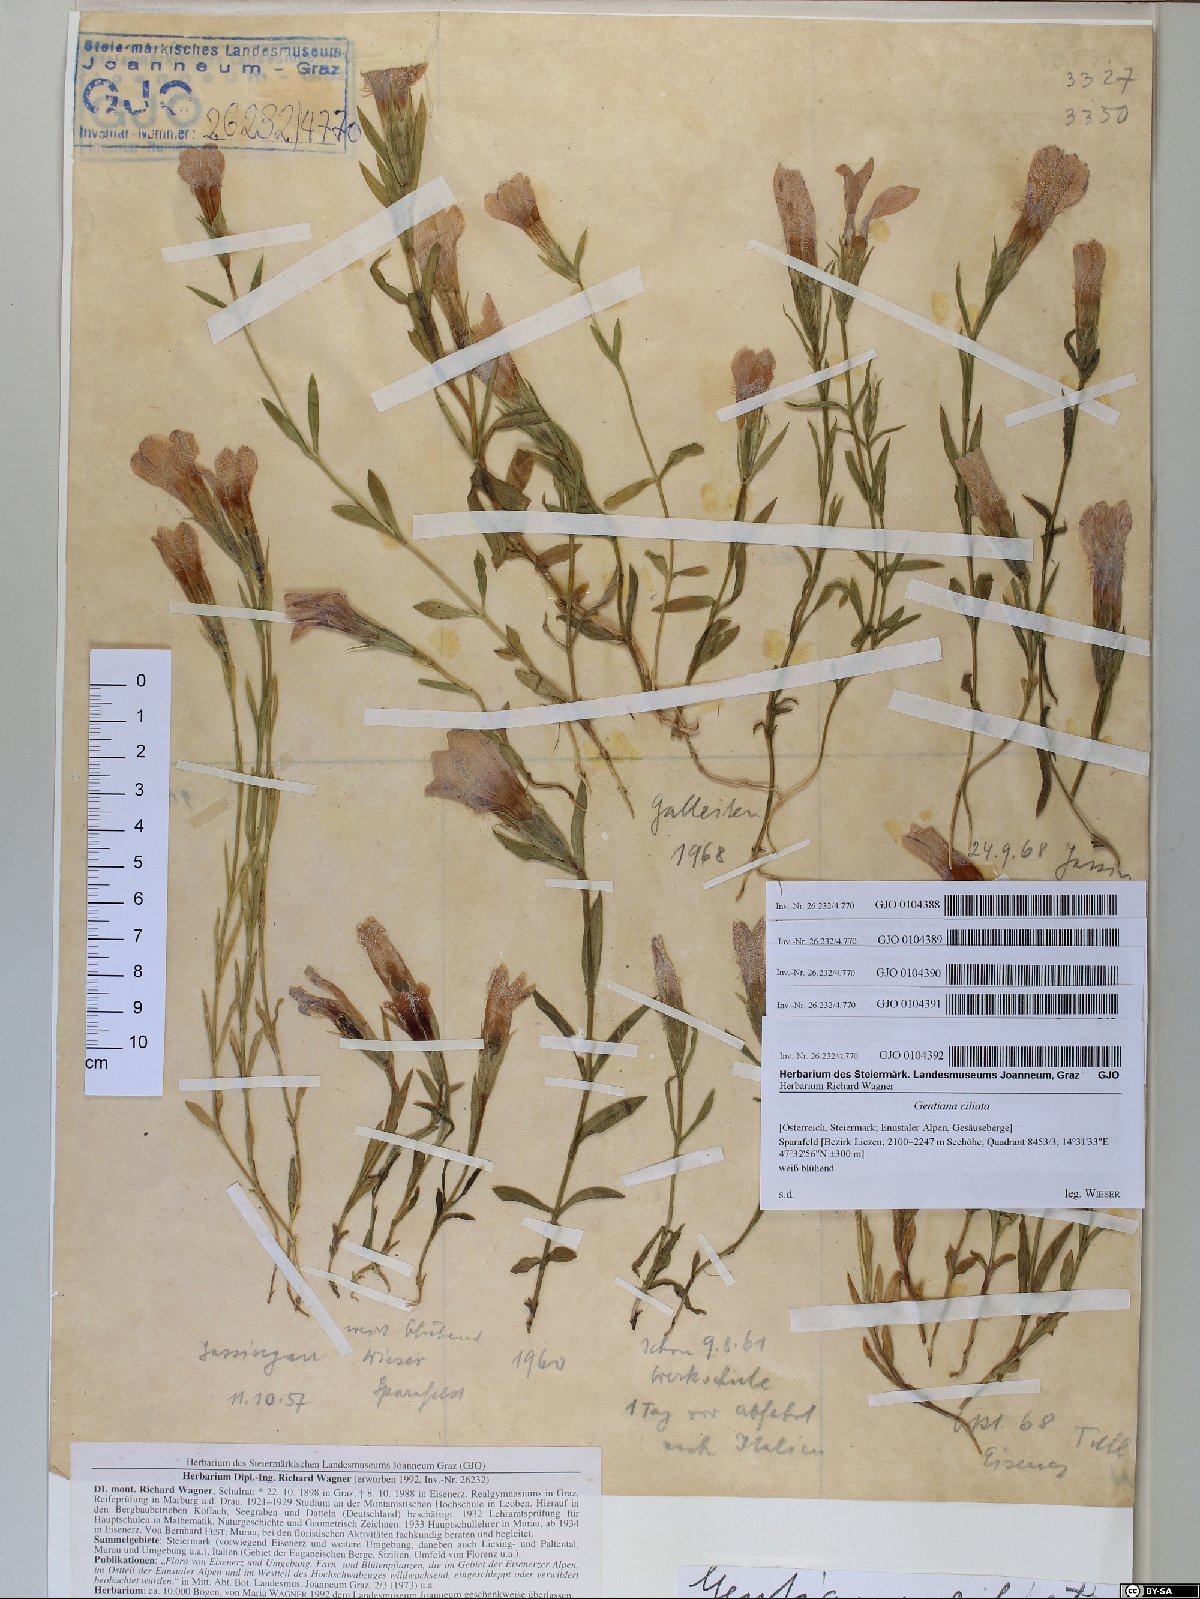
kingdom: Plantae
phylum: Tracheophyta
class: Magnoliopsida
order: Gentianales
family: Gentianaceae
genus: Gentianopsis
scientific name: Gentianopsis ciliata
